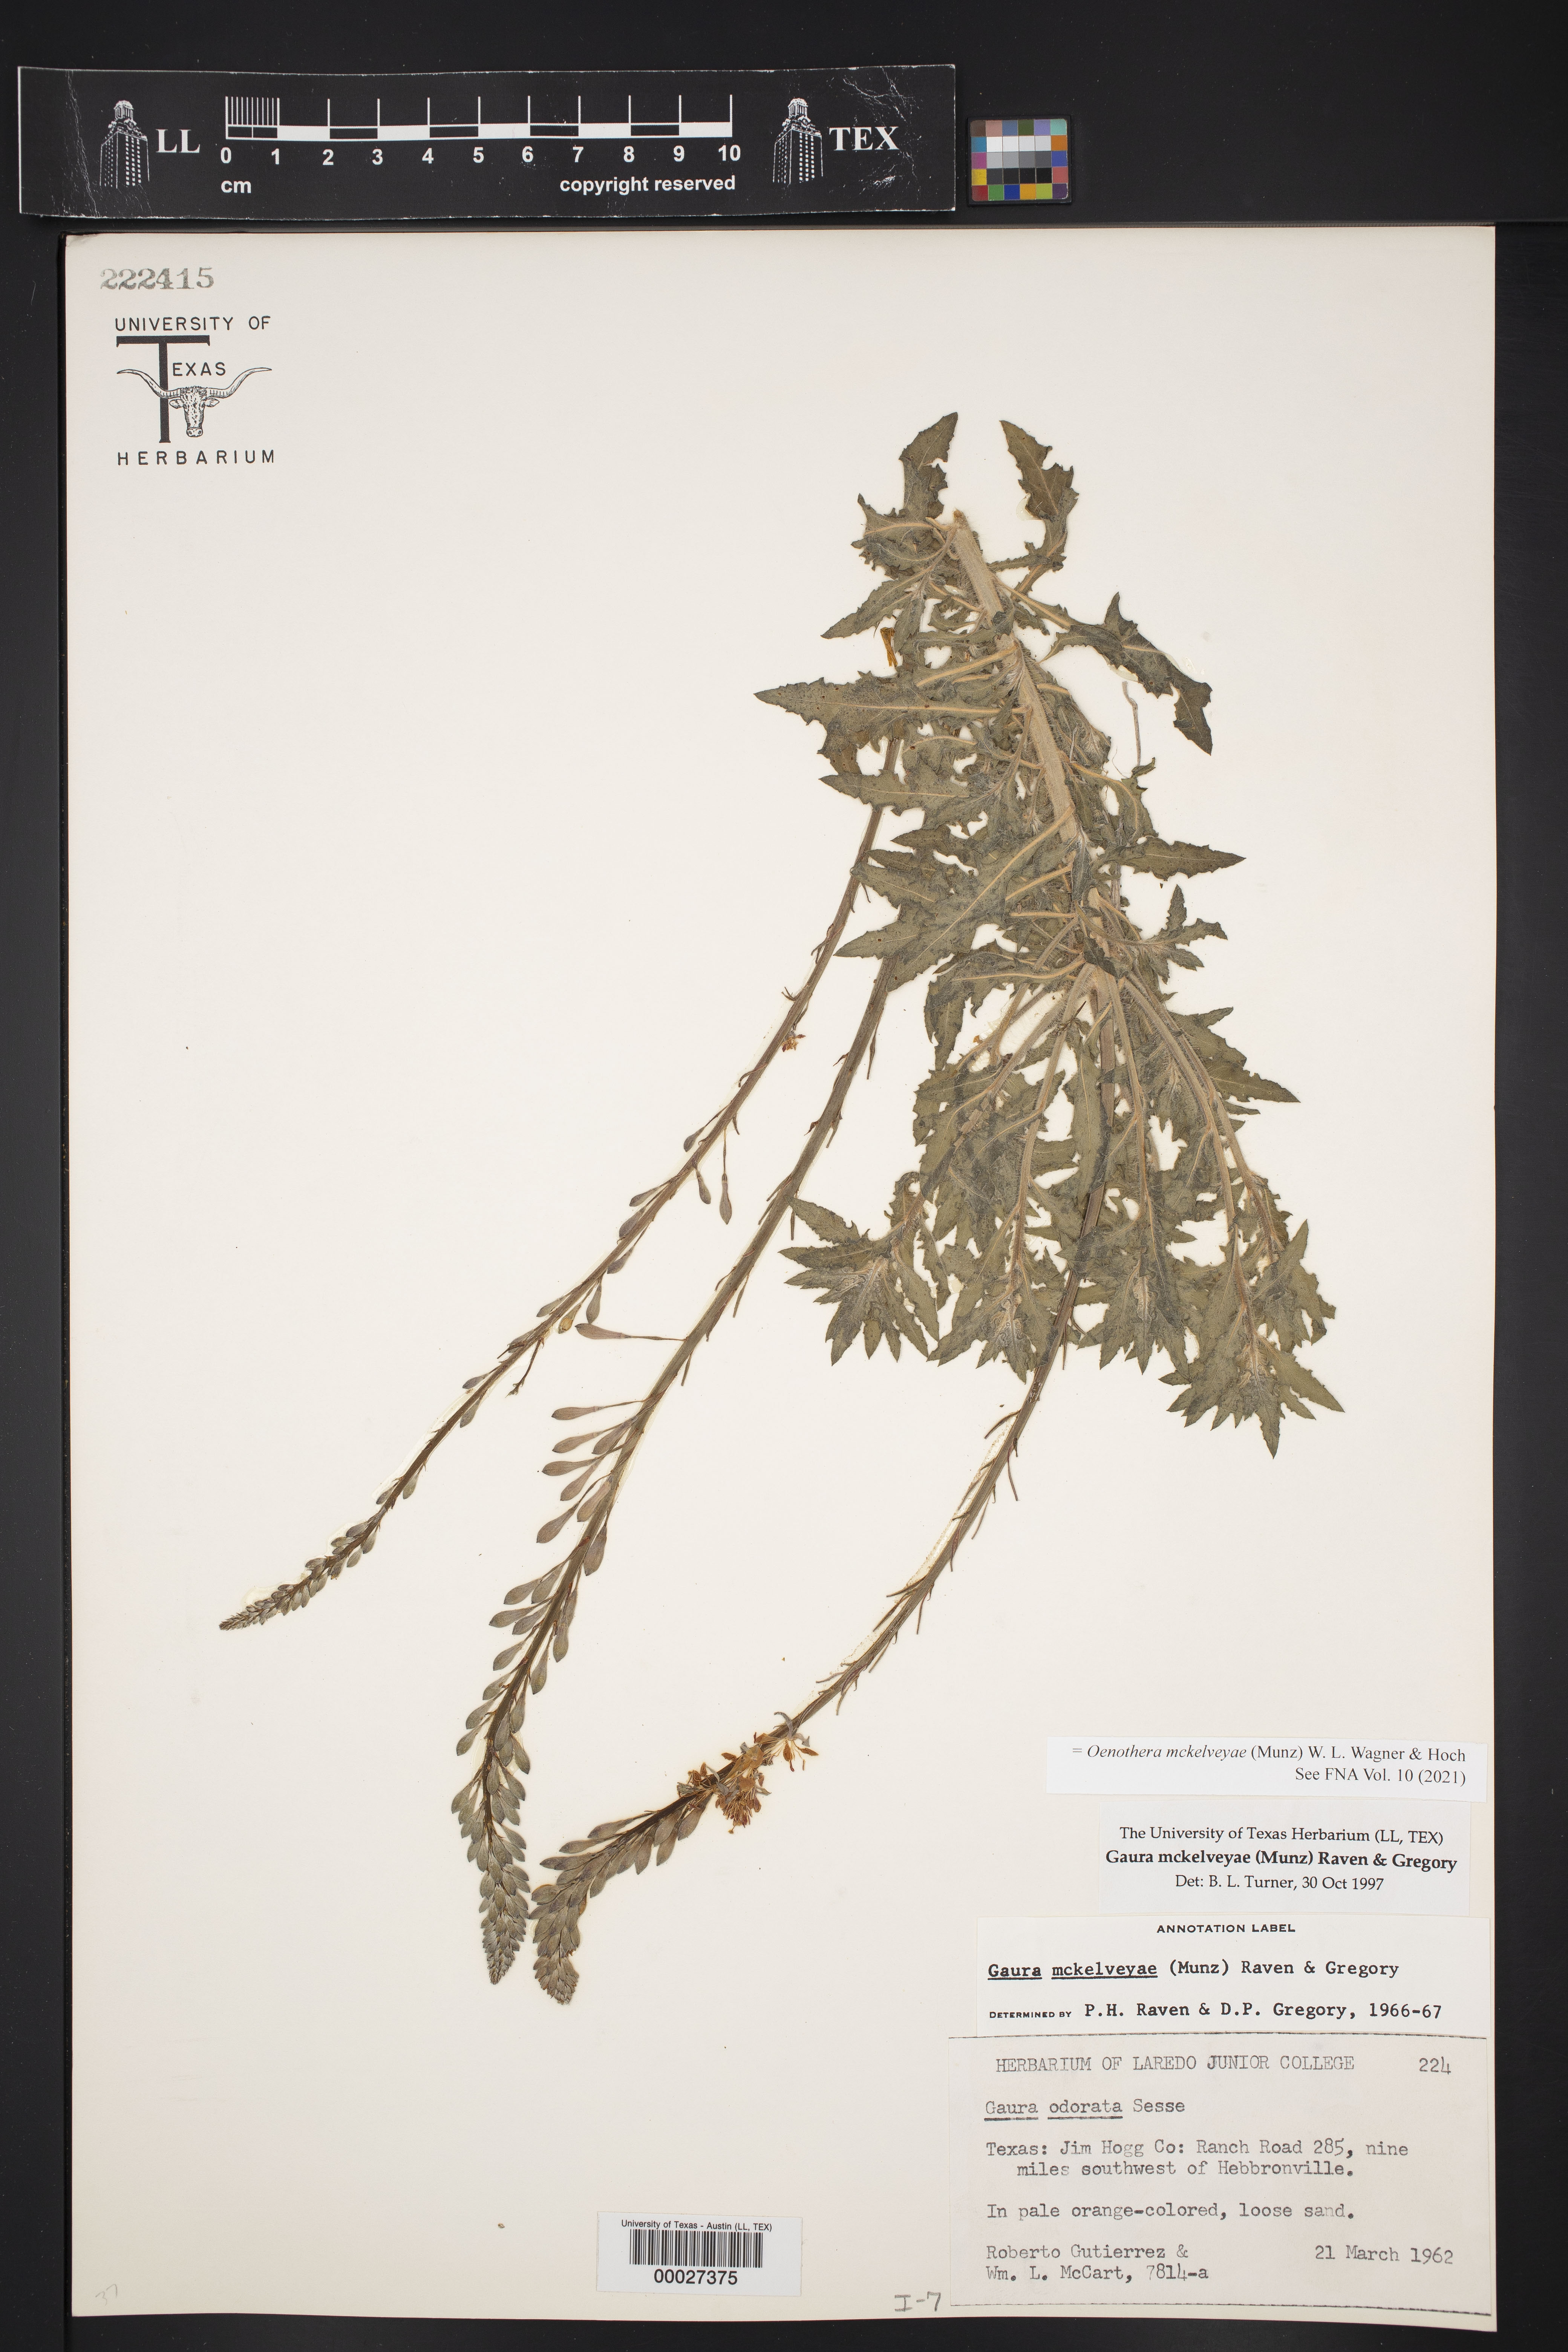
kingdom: Plantae
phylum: Tracheophyta
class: Magnoliopsida
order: Myrtales
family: Onagraceae
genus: Oenothera
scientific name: Oenothera mckelveyae
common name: Mckelvey's beeblossom
